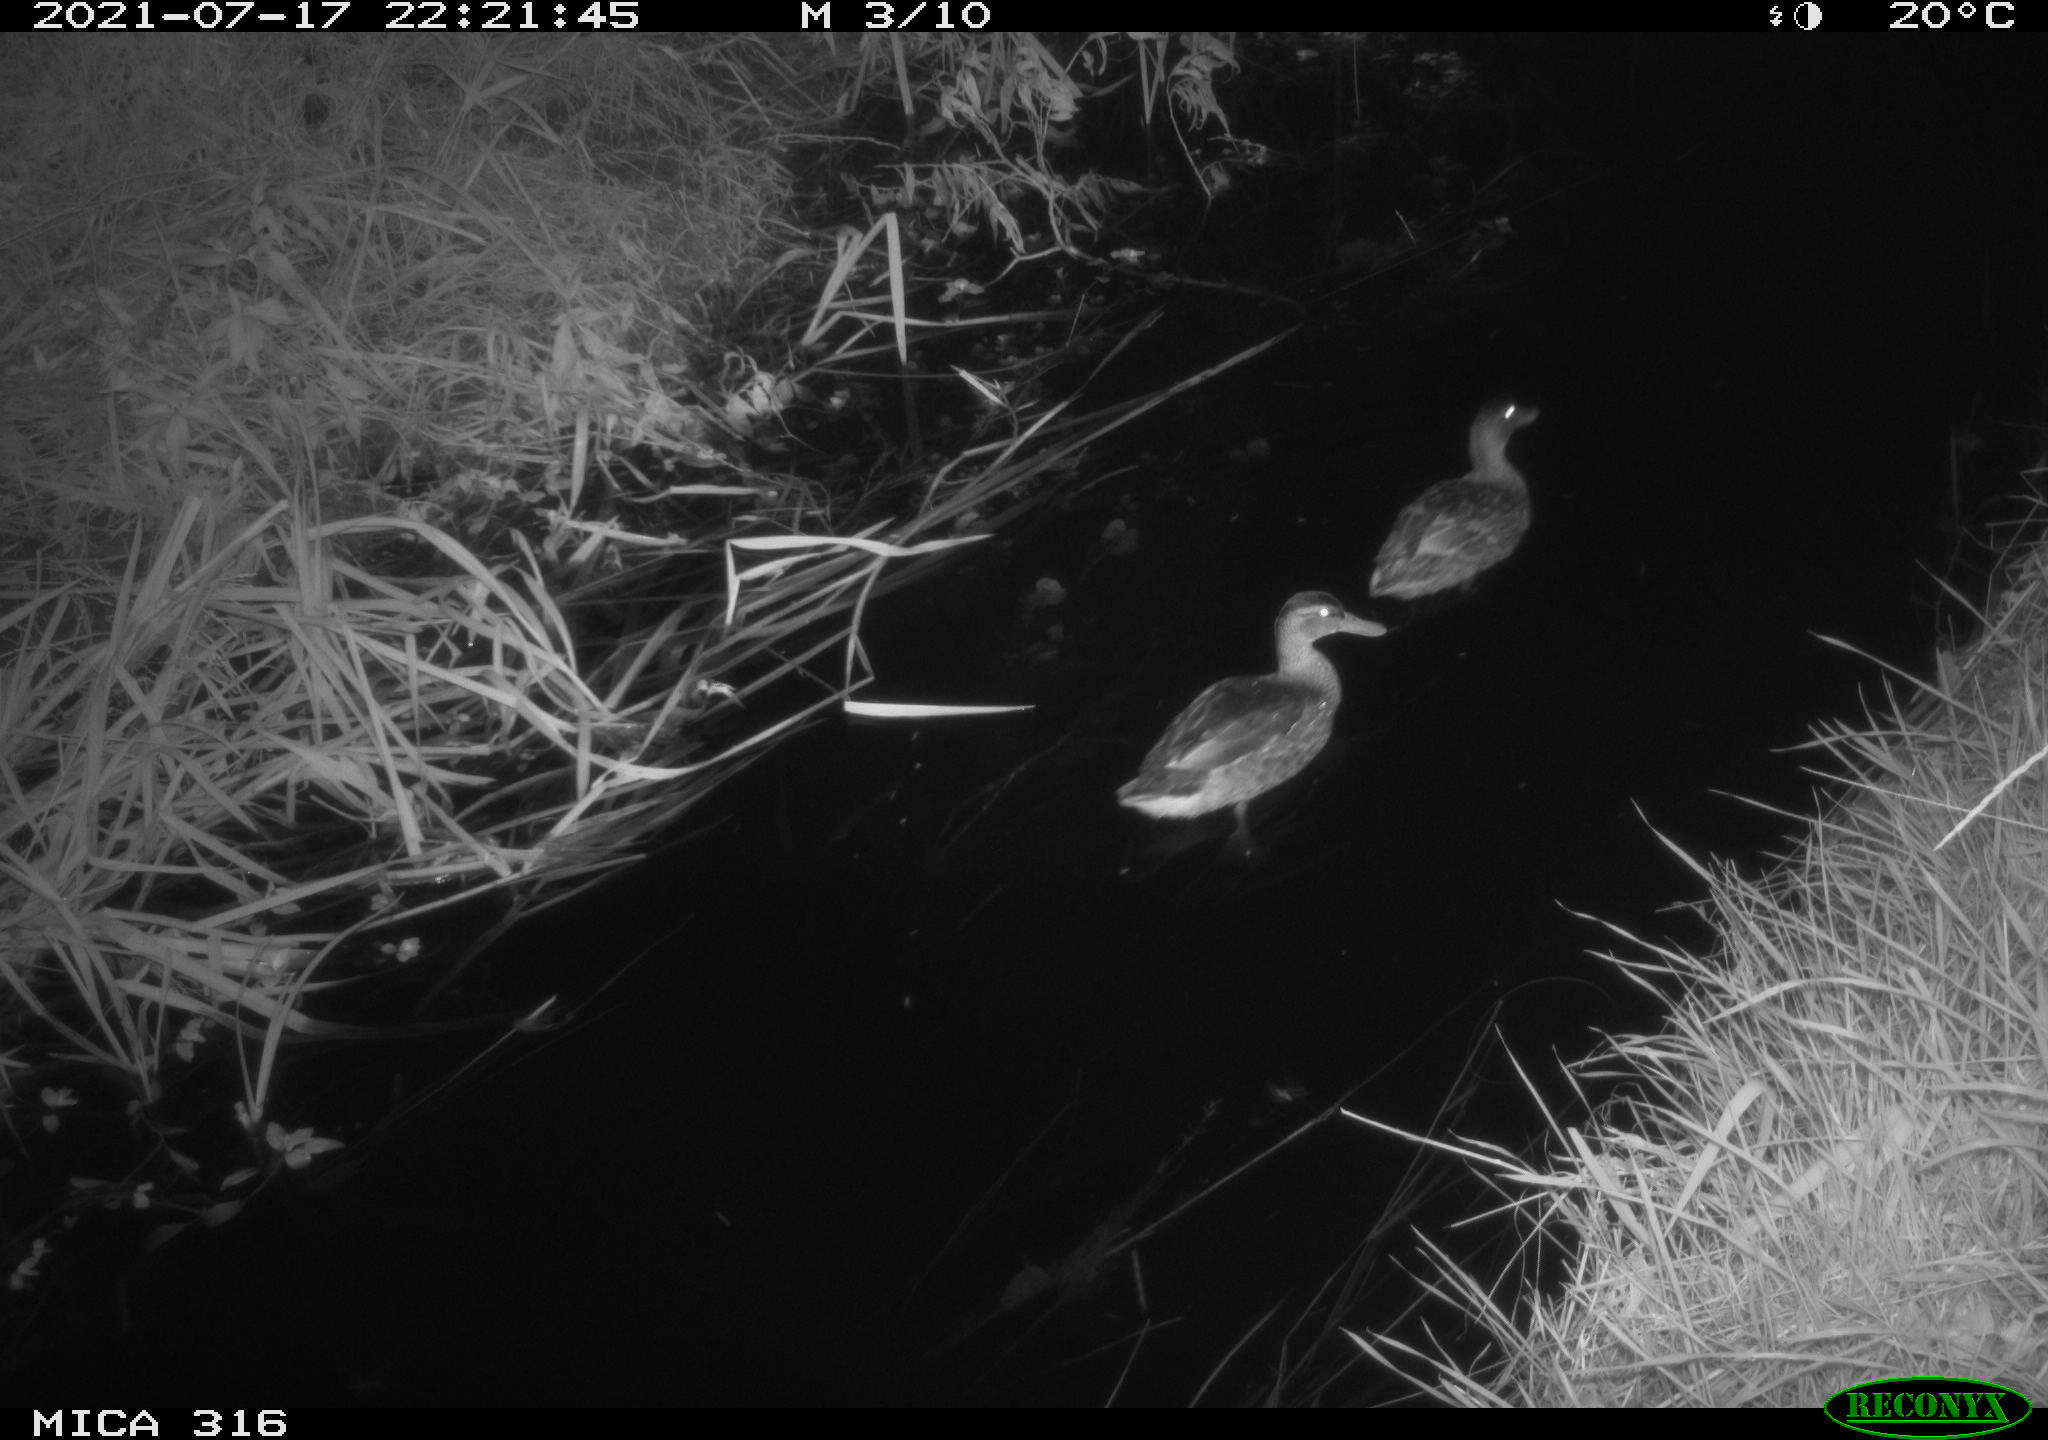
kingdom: Animalia
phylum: Chordata
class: Aves
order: Anseriformes
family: Anatidae
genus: Anas
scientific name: Anas platyrhynchos
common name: Mallard
